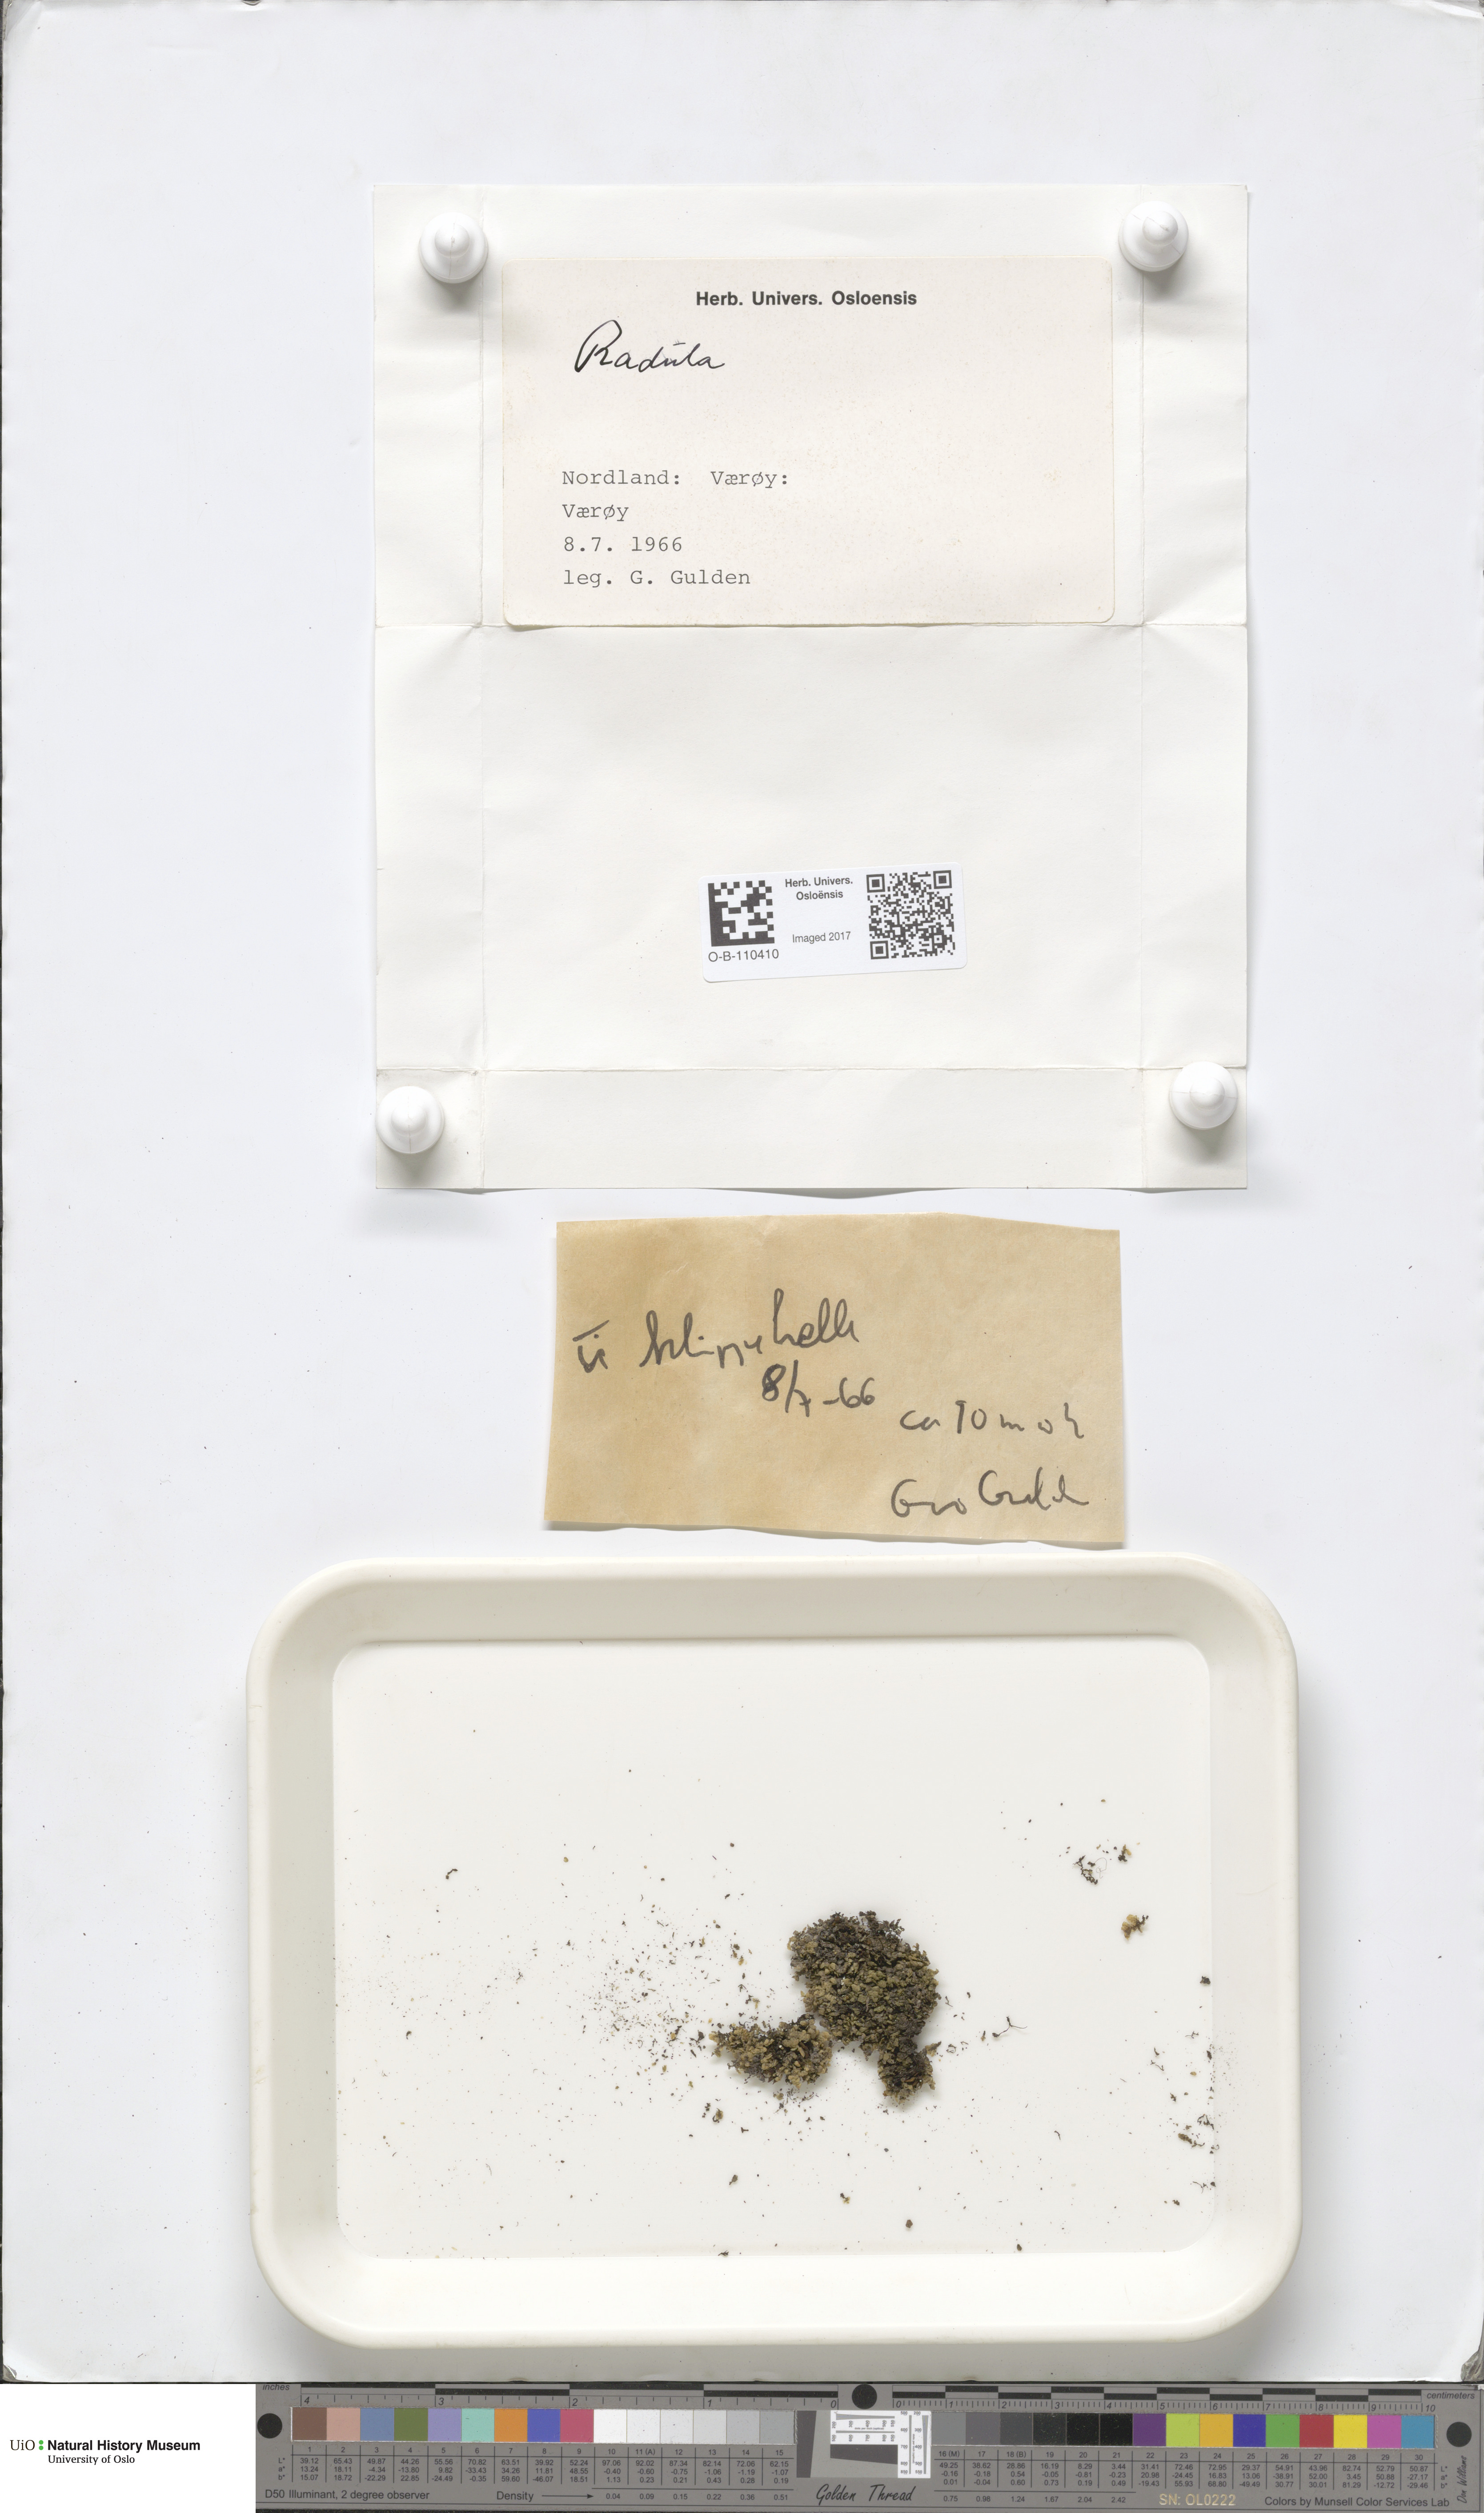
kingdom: Plantae
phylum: Marchantiophyta
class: Jungermanniopsida
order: Porellales
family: Radulaceae
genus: Radula
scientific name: Radula
